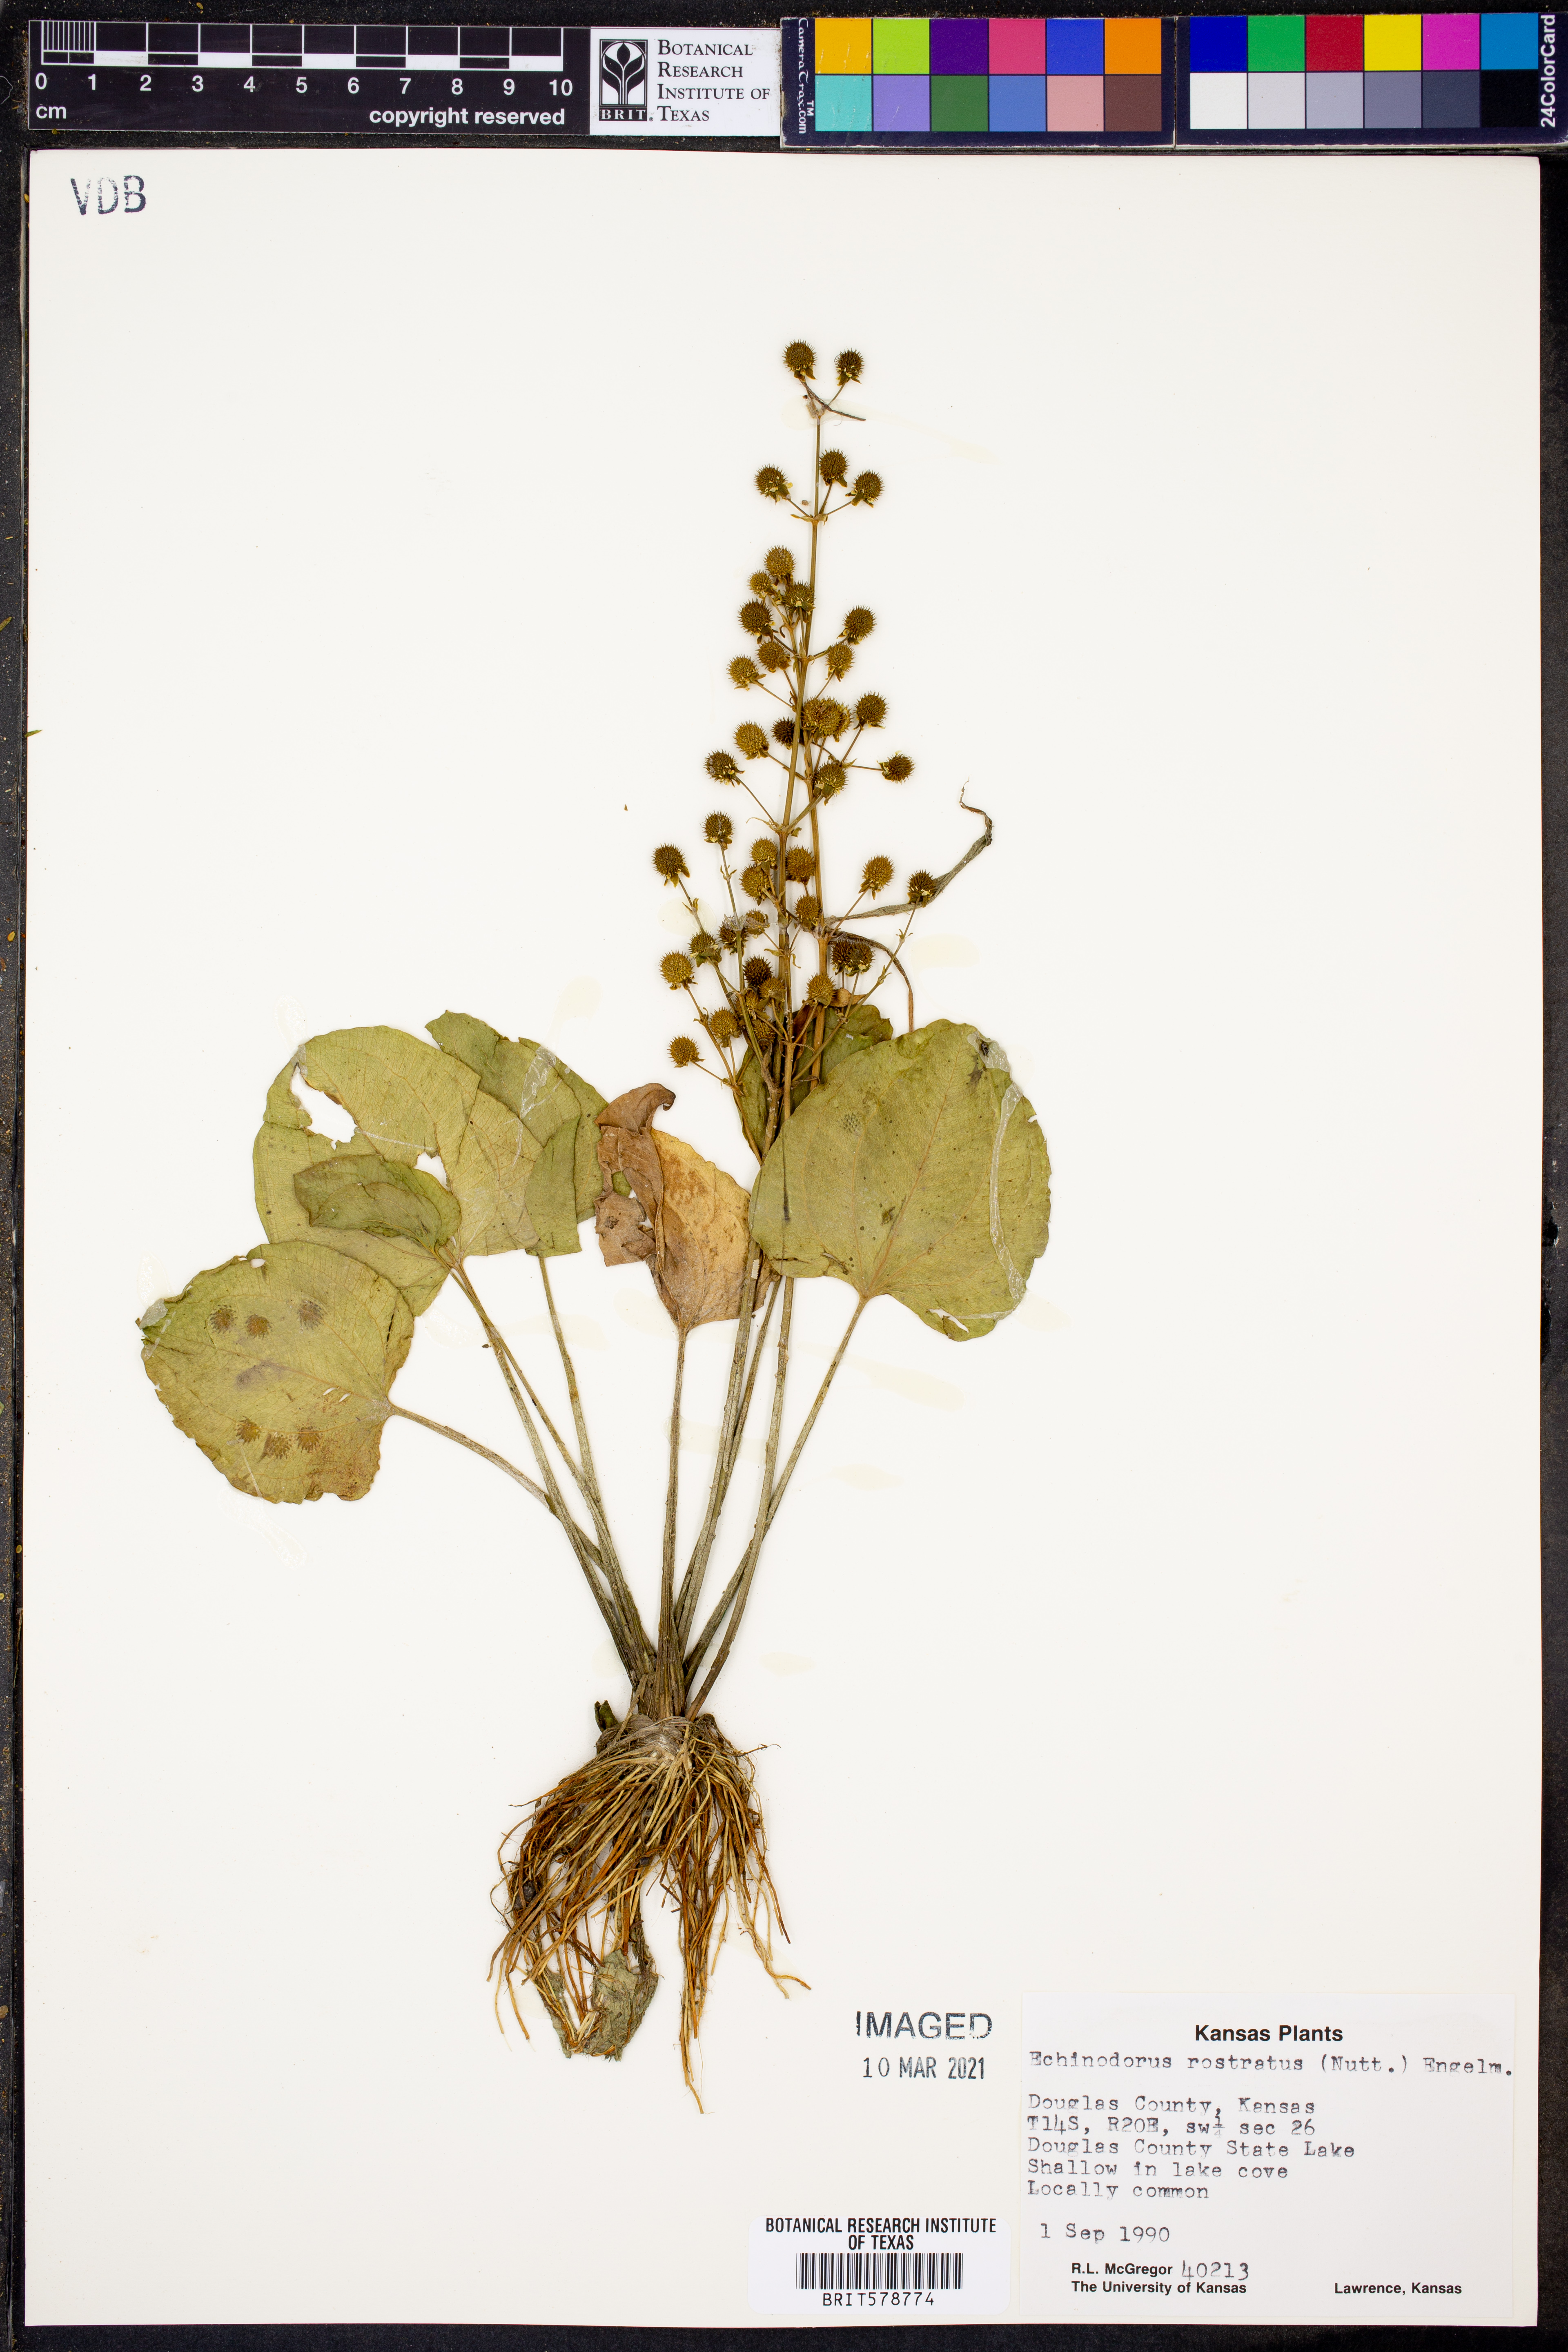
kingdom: Plantae
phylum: Tracheophyta
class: Liliopsida
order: Alismatales
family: Alismataceae
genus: Echinodorus
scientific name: Echinodorus berteroi
